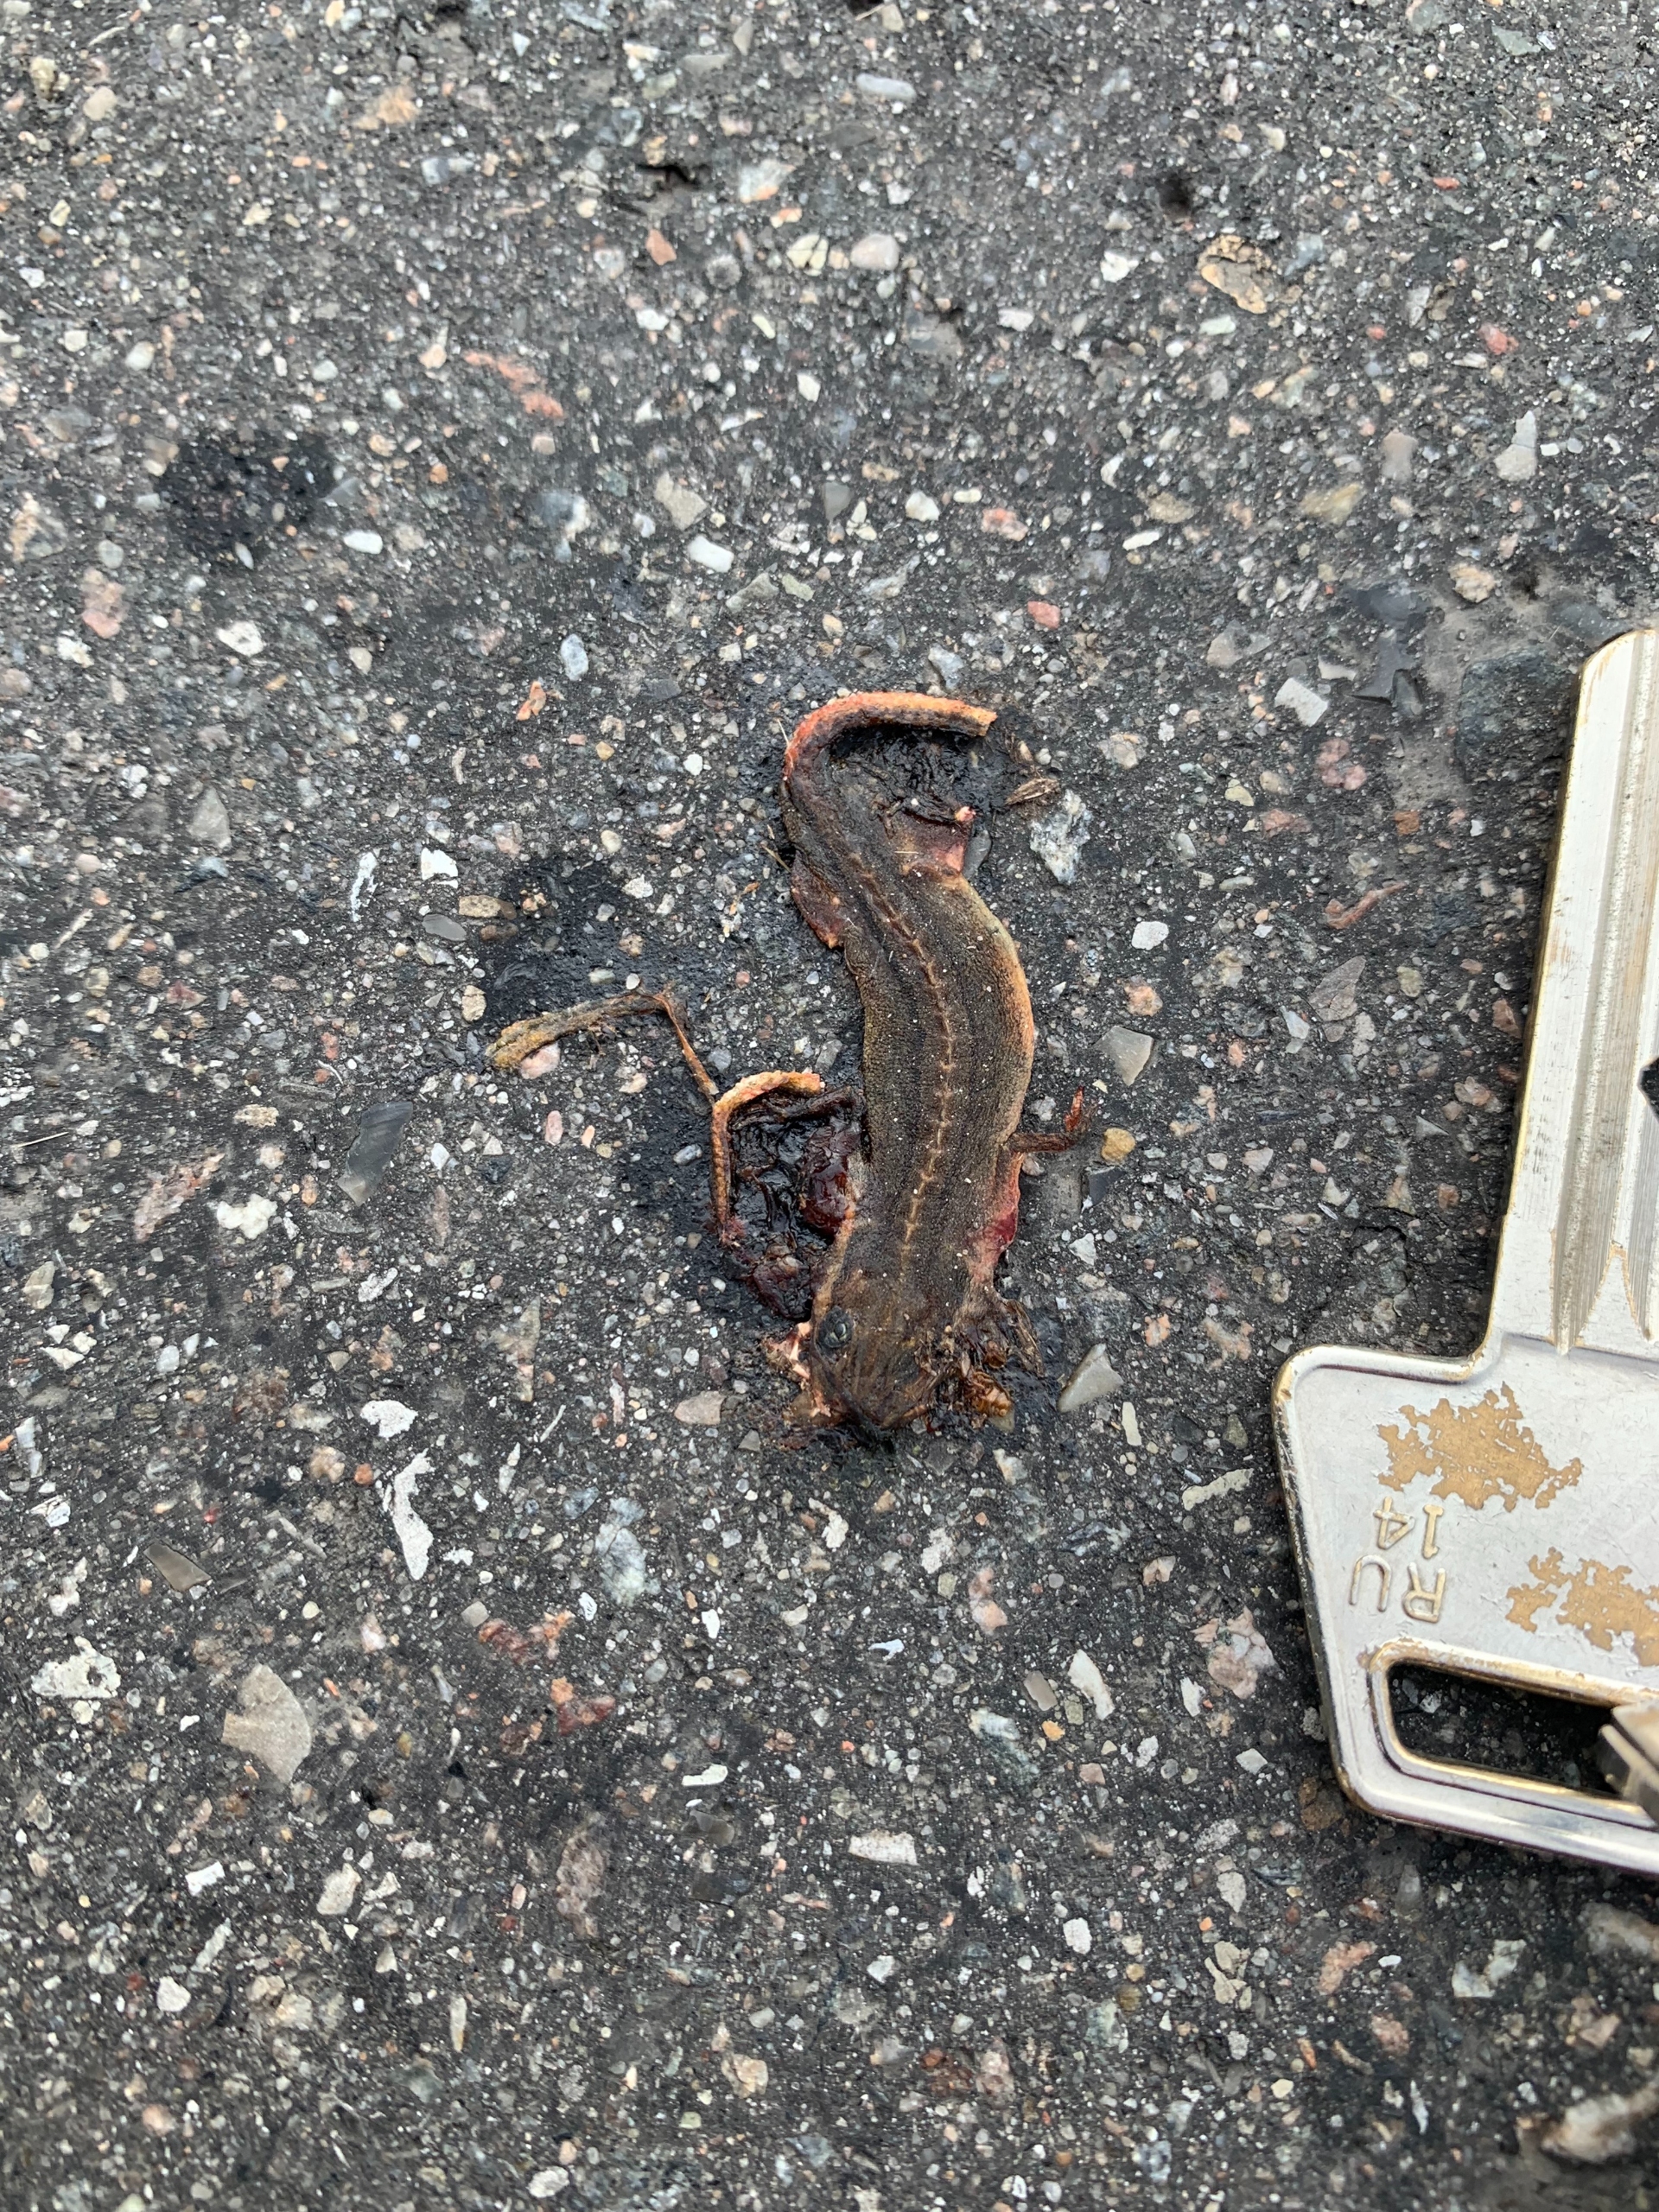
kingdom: Animalia
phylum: Chordata
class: Amphibia
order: Caudata
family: Salamandridae
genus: Lissotriton
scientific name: Lissotriton vulgaris
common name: Lille vandsalamander
